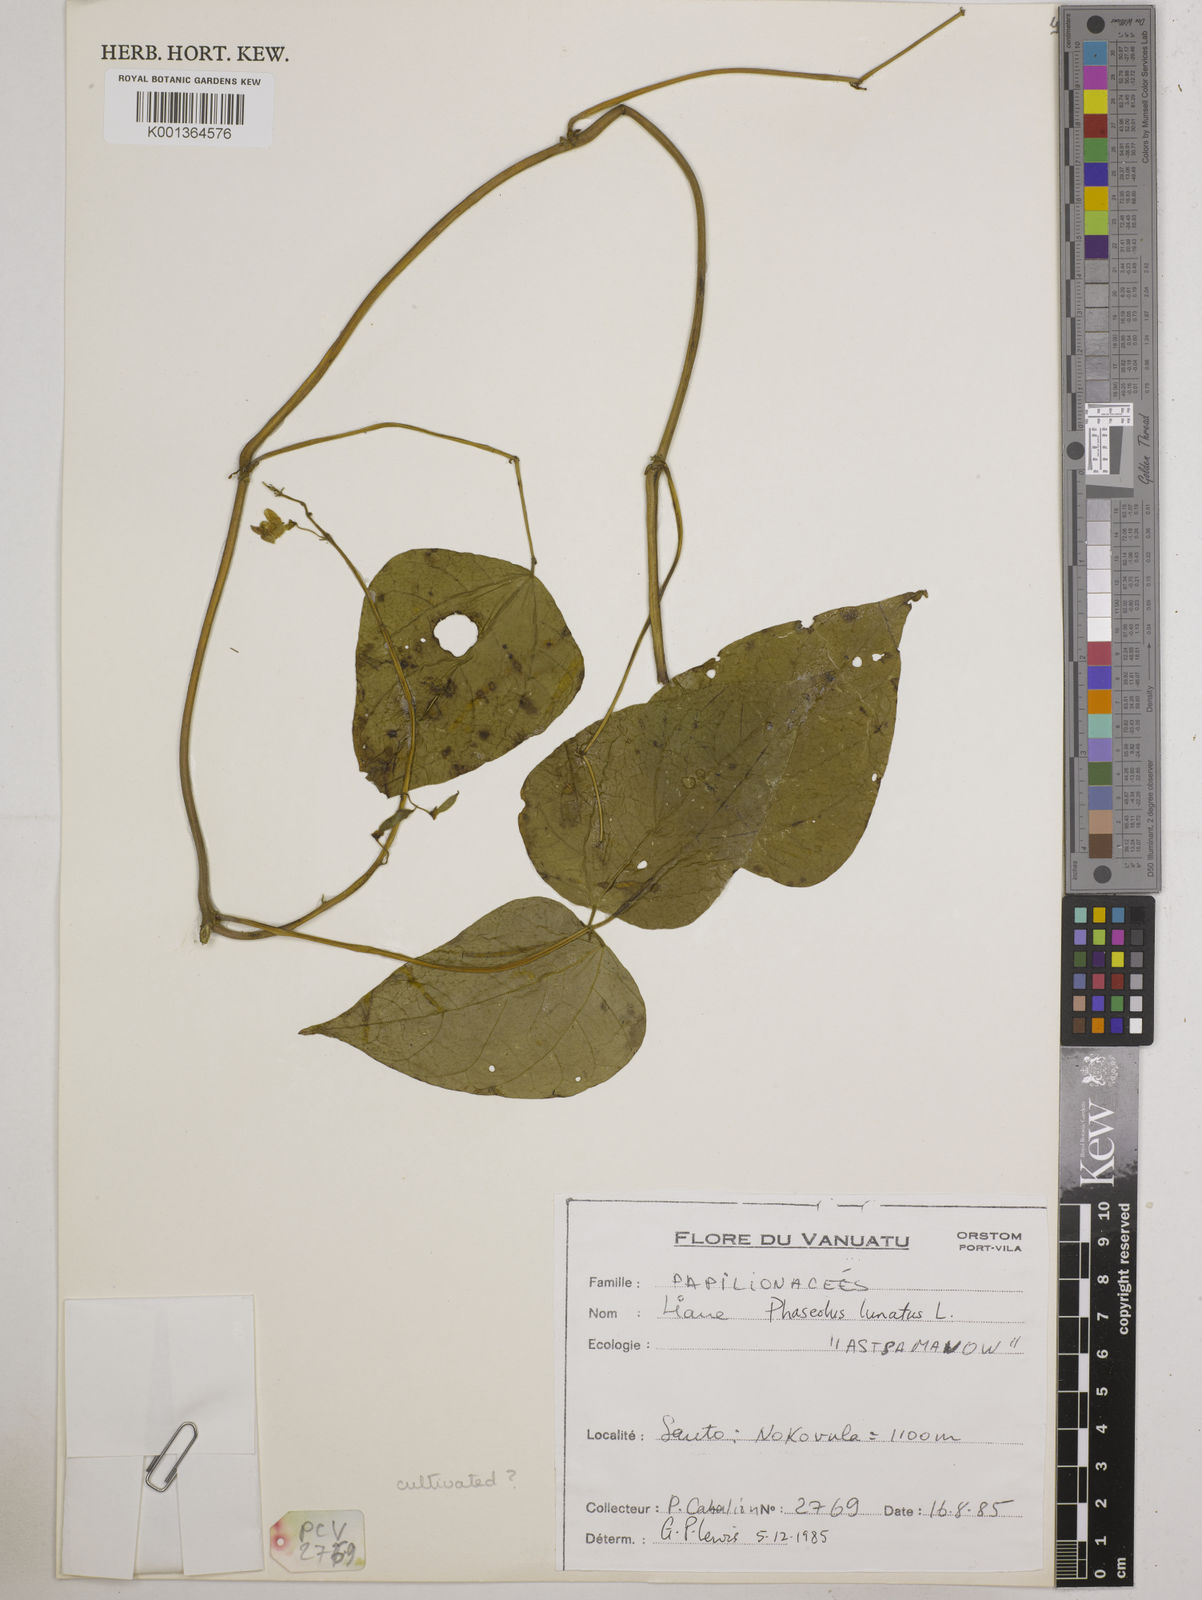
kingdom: Plantae
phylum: Tracheophyta
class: Magnoliopsida
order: Fabales
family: Fabaceae
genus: Phaseolus
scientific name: Phaseolus lunatus
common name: Sieva bean
